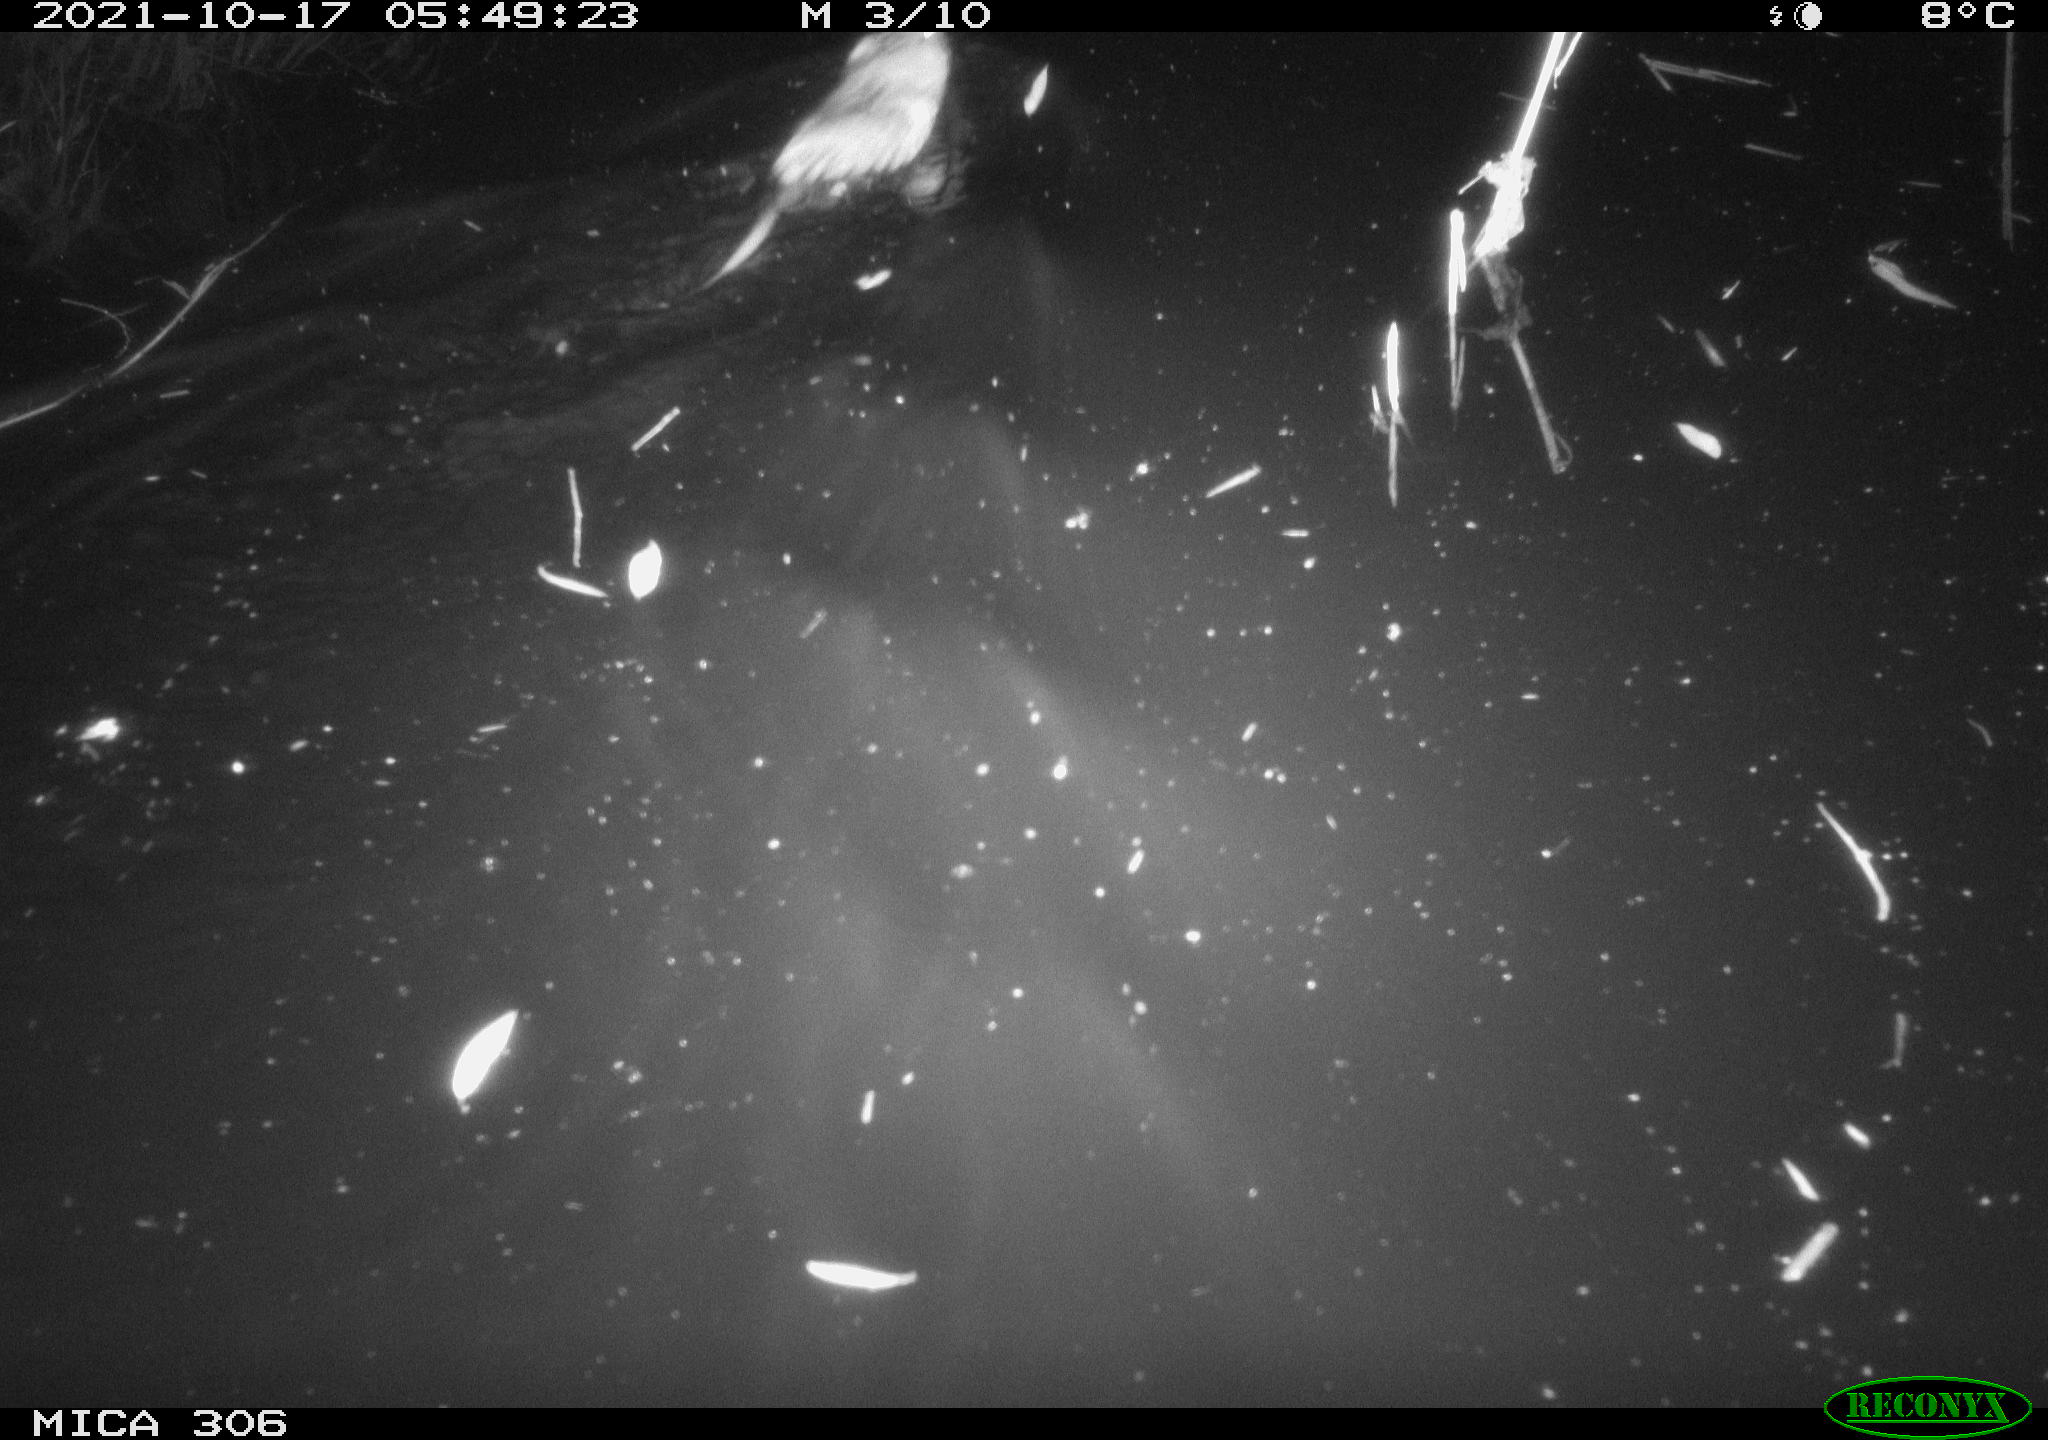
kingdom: Animalia
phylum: Chordata
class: Mammalia
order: Rodentia
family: Cricetidae
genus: Ondatra
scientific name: Ondatra zibethicus
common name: Muskrat
